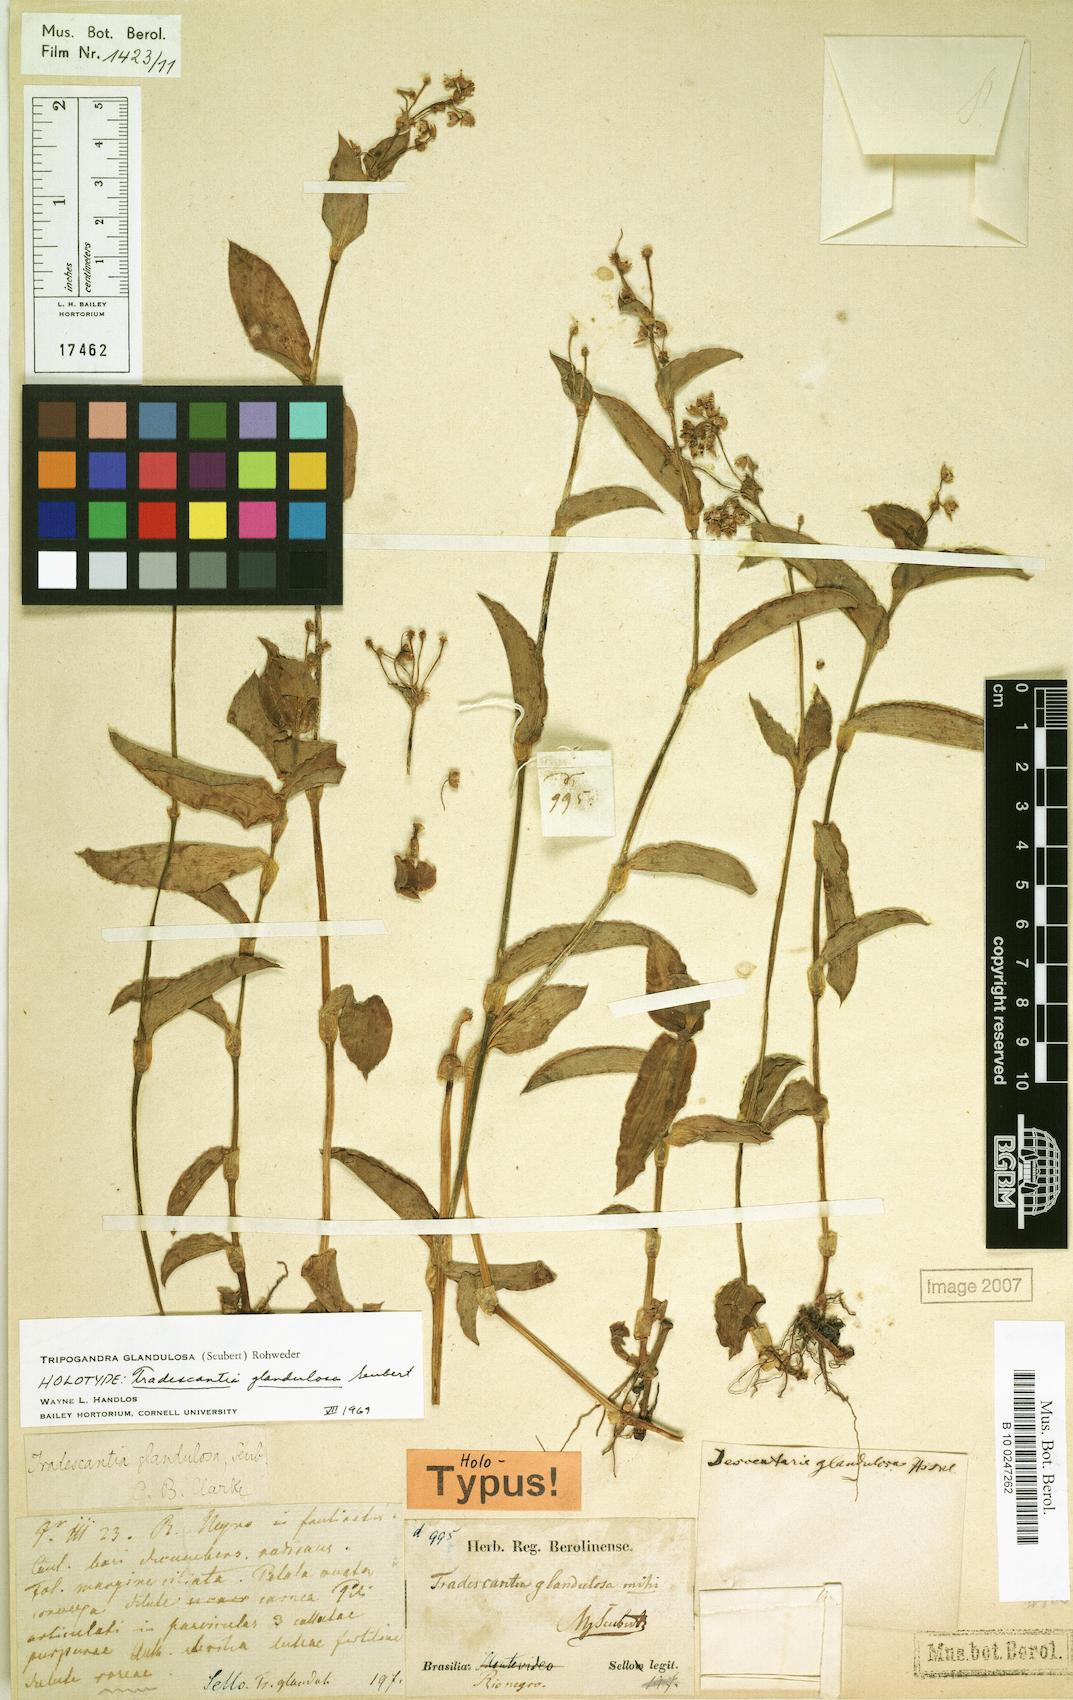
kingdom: Plantae
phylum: Tracheophyta
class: Liliopsida
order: Commelinales
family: Commelinaceae
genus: Callisia
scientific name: Callisia glandulosa
